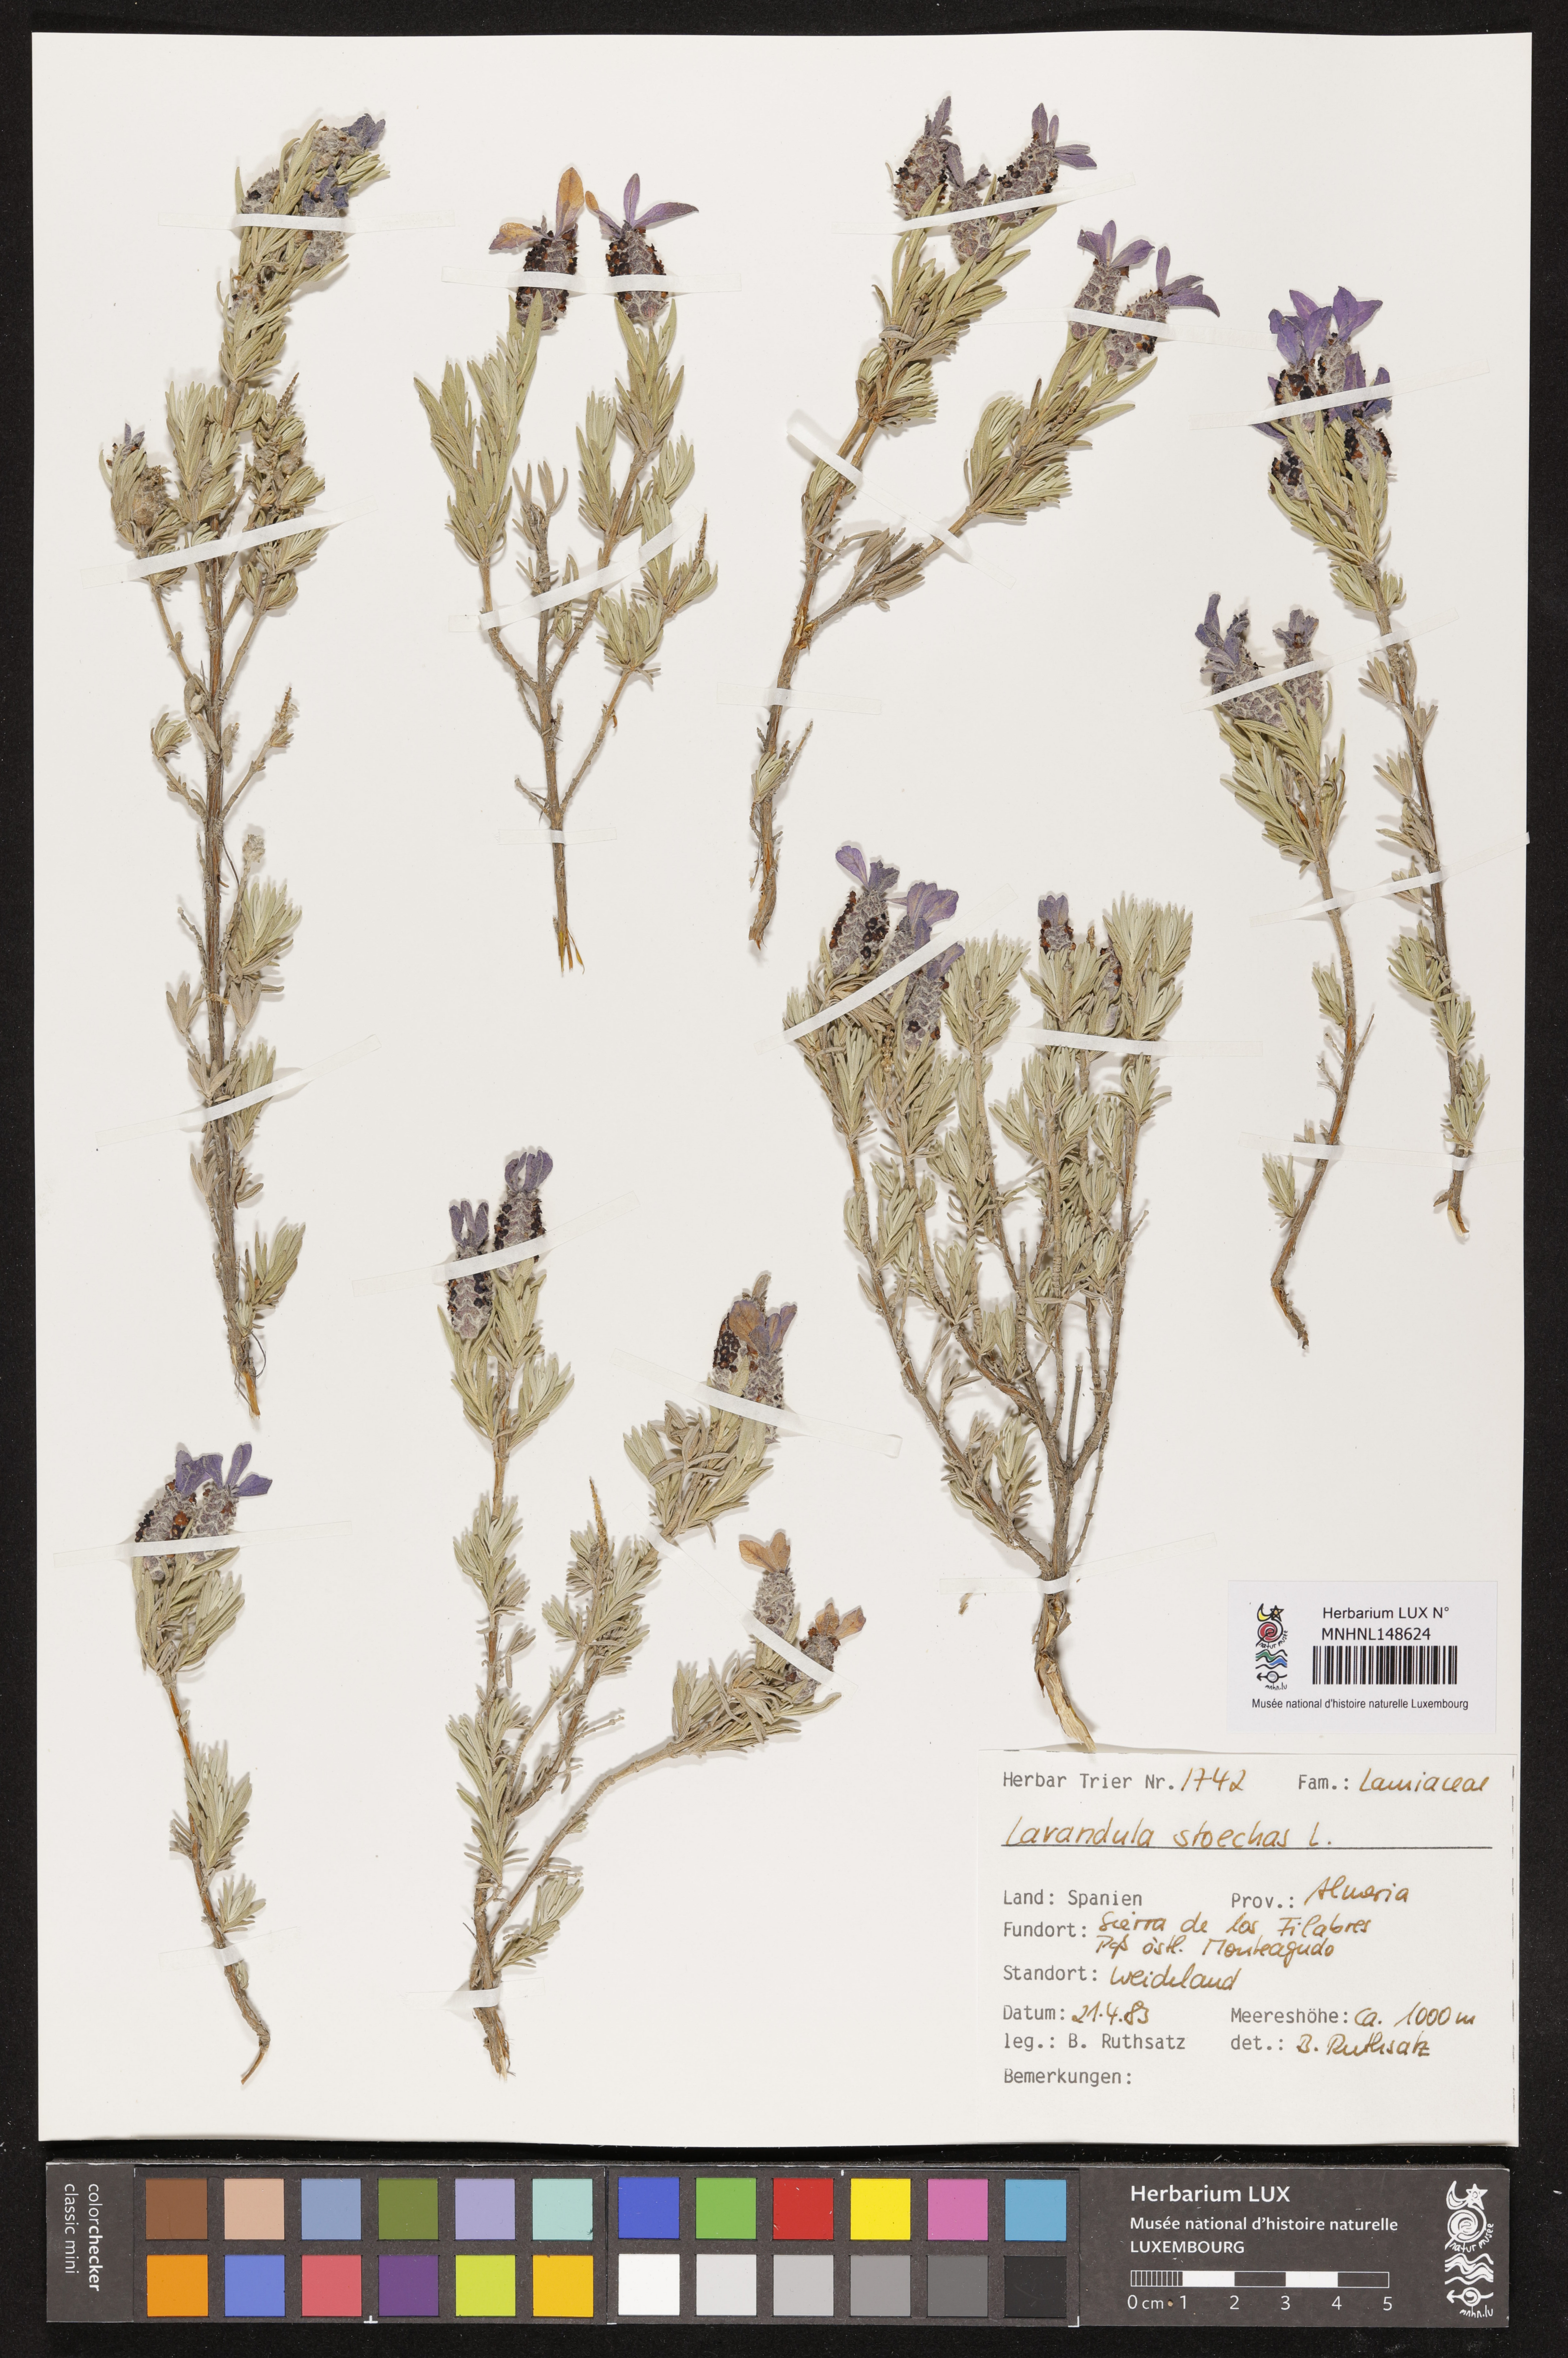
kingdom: Plantae
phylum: Tracheophyta
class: Magnoliopsida
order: Lamiales
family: Lamiaceae
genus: Lavandula
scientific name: Lavandula stoechas
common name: French lavender
